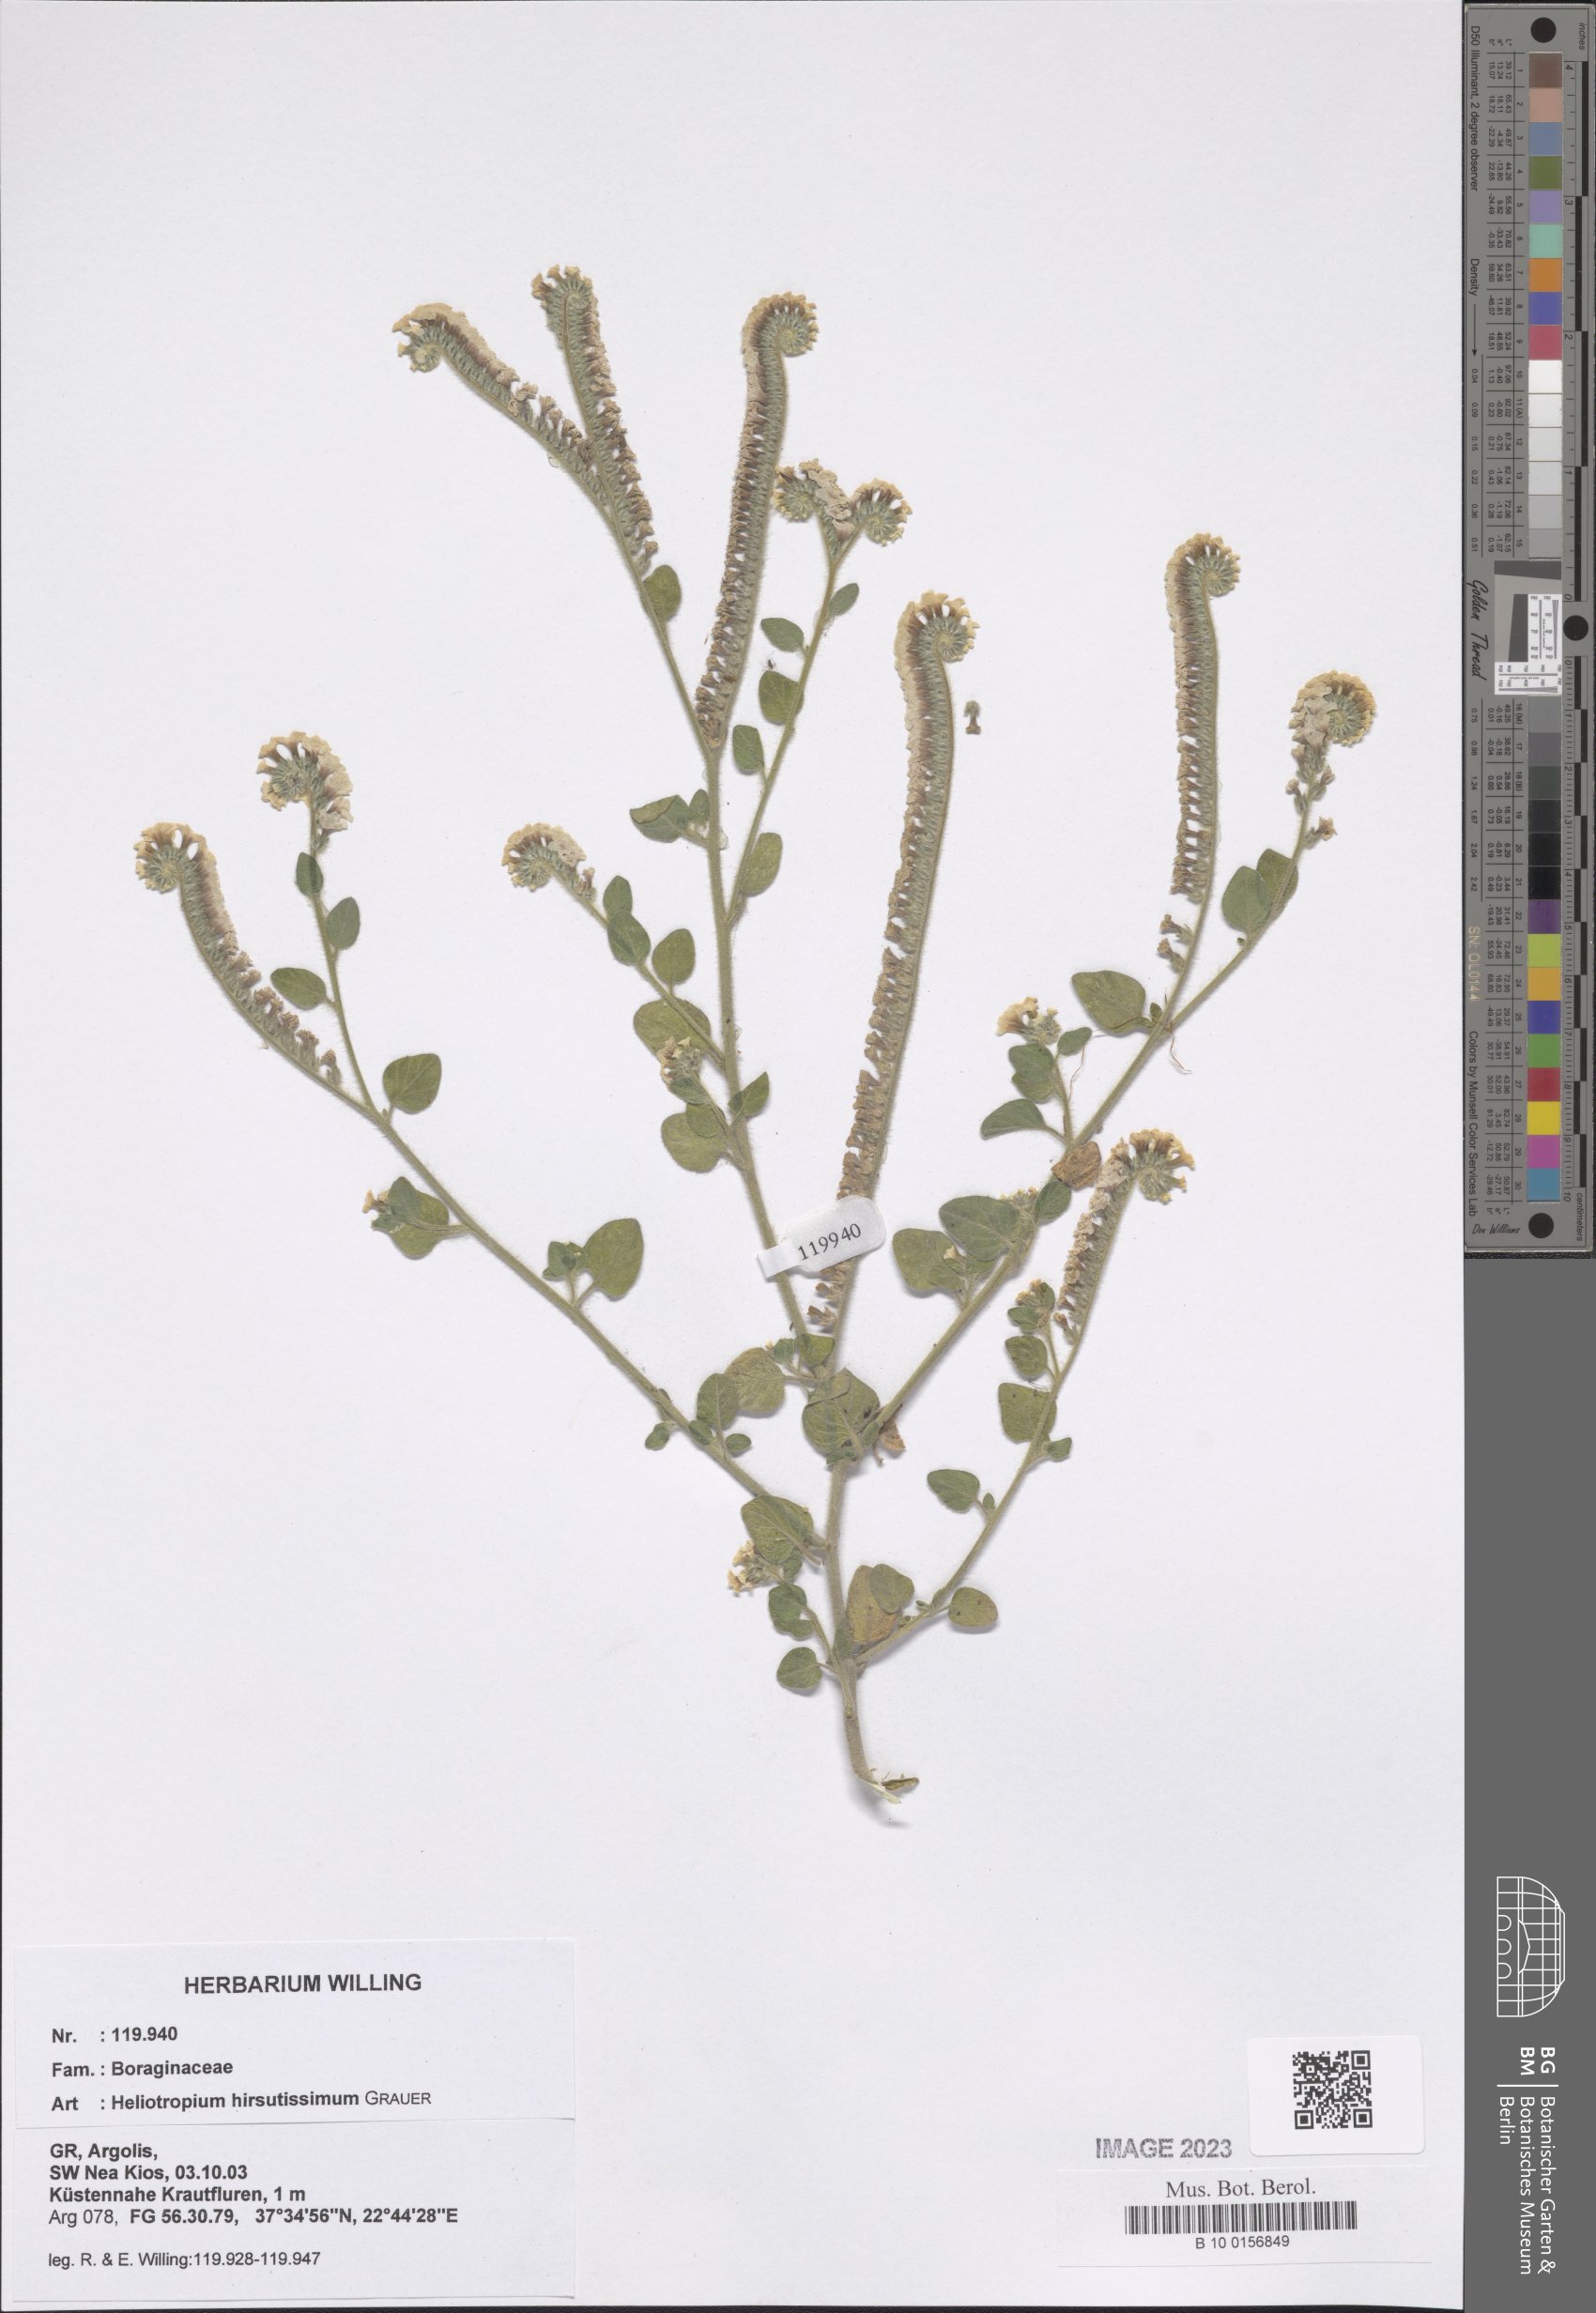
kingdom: Plantae
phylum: Tracheophyta
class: Magnoliopsida
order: Boraginales
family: Heliotropiaceae
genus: Heliotropium
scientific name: Heliotropium hirsutissimum
